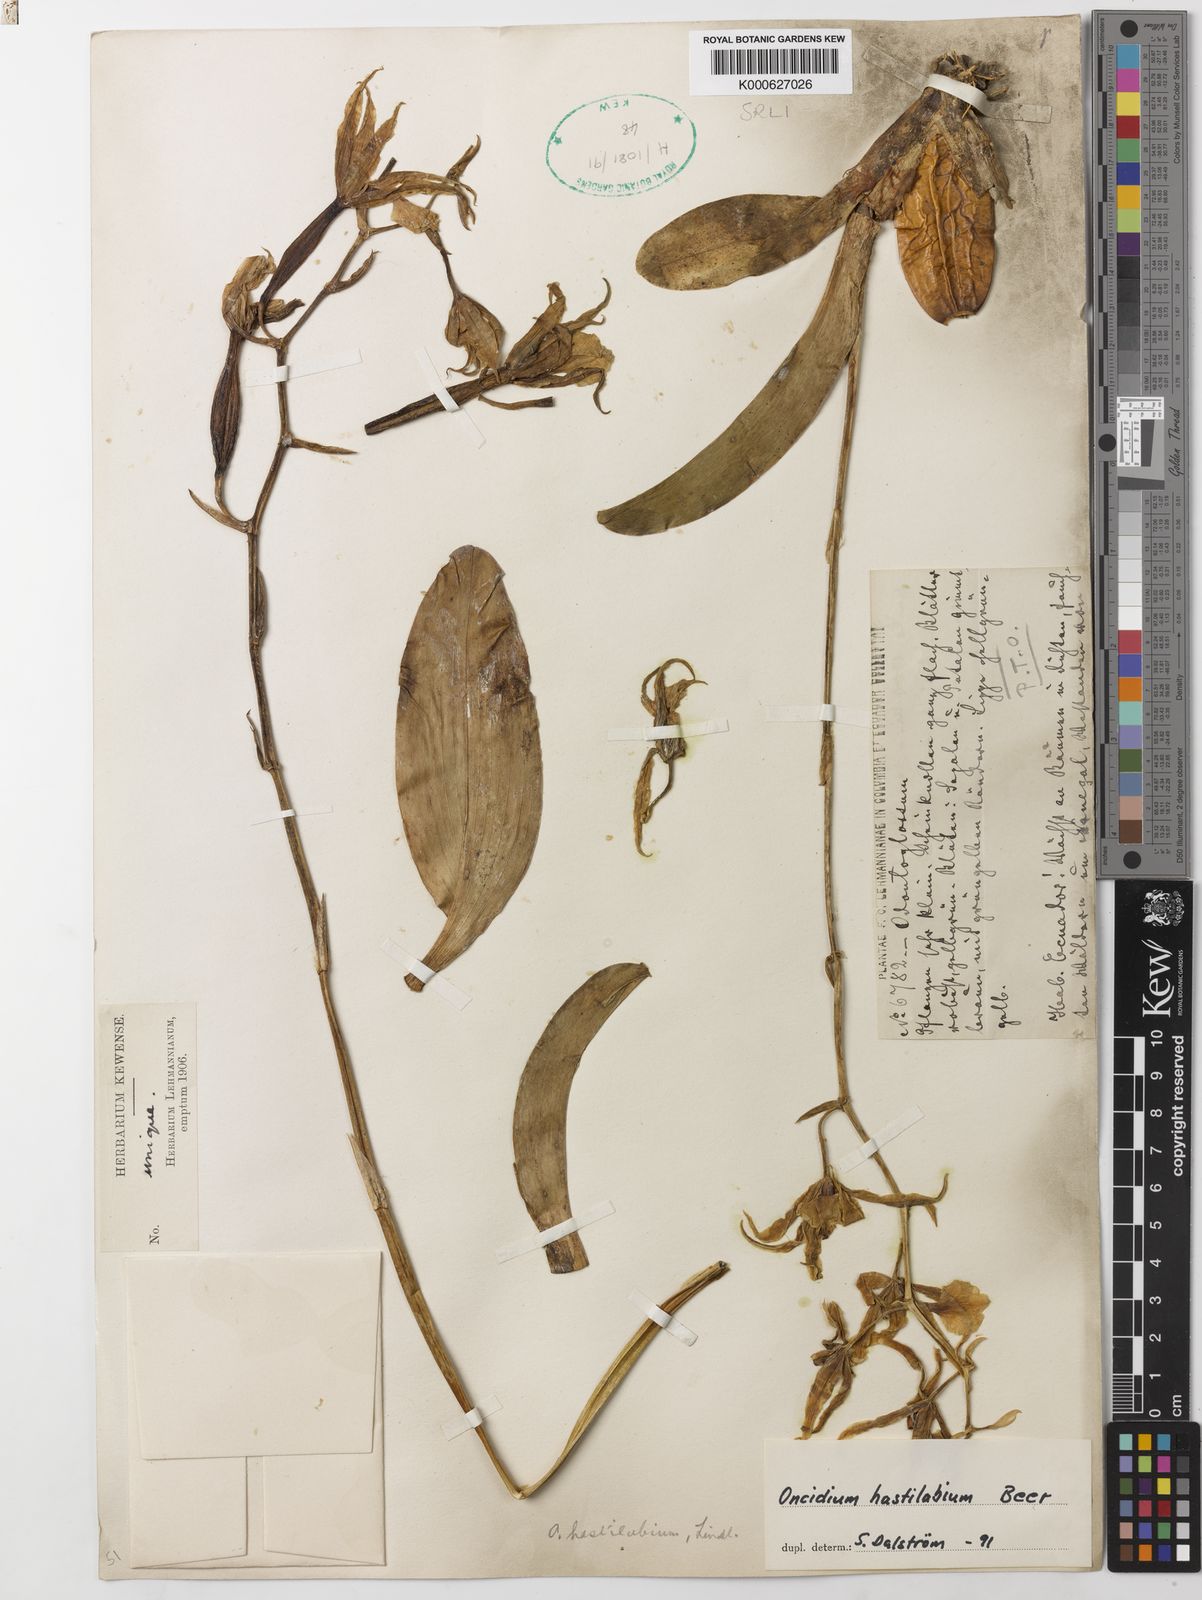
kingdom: Plantae
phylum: Tracheophyta
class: Liliopsida
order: Asparagales
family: Orchidaceae
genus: Oncidium
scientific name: Oncidium
